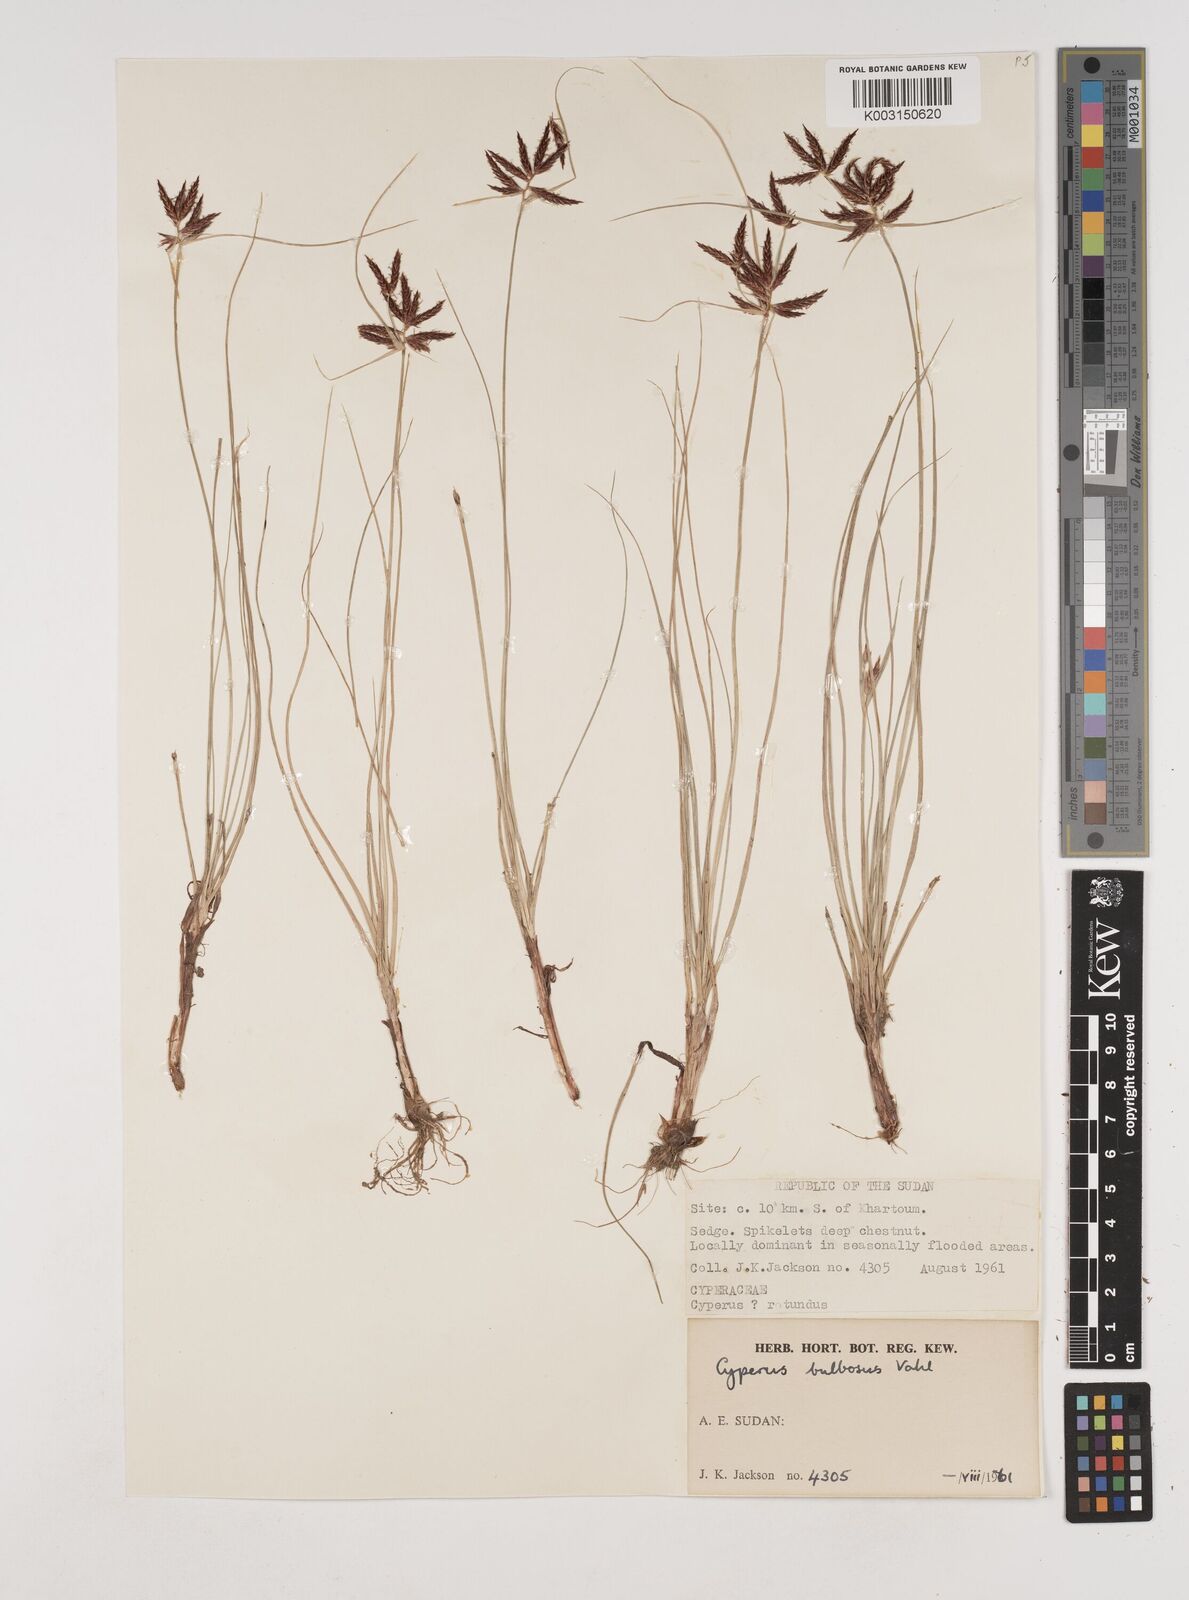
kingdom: Plantae
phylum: Tracheophyta
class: Liliopsida
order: Poales
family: Cyperaceae
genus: Cyperus
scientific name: Cyperus bulbosus
